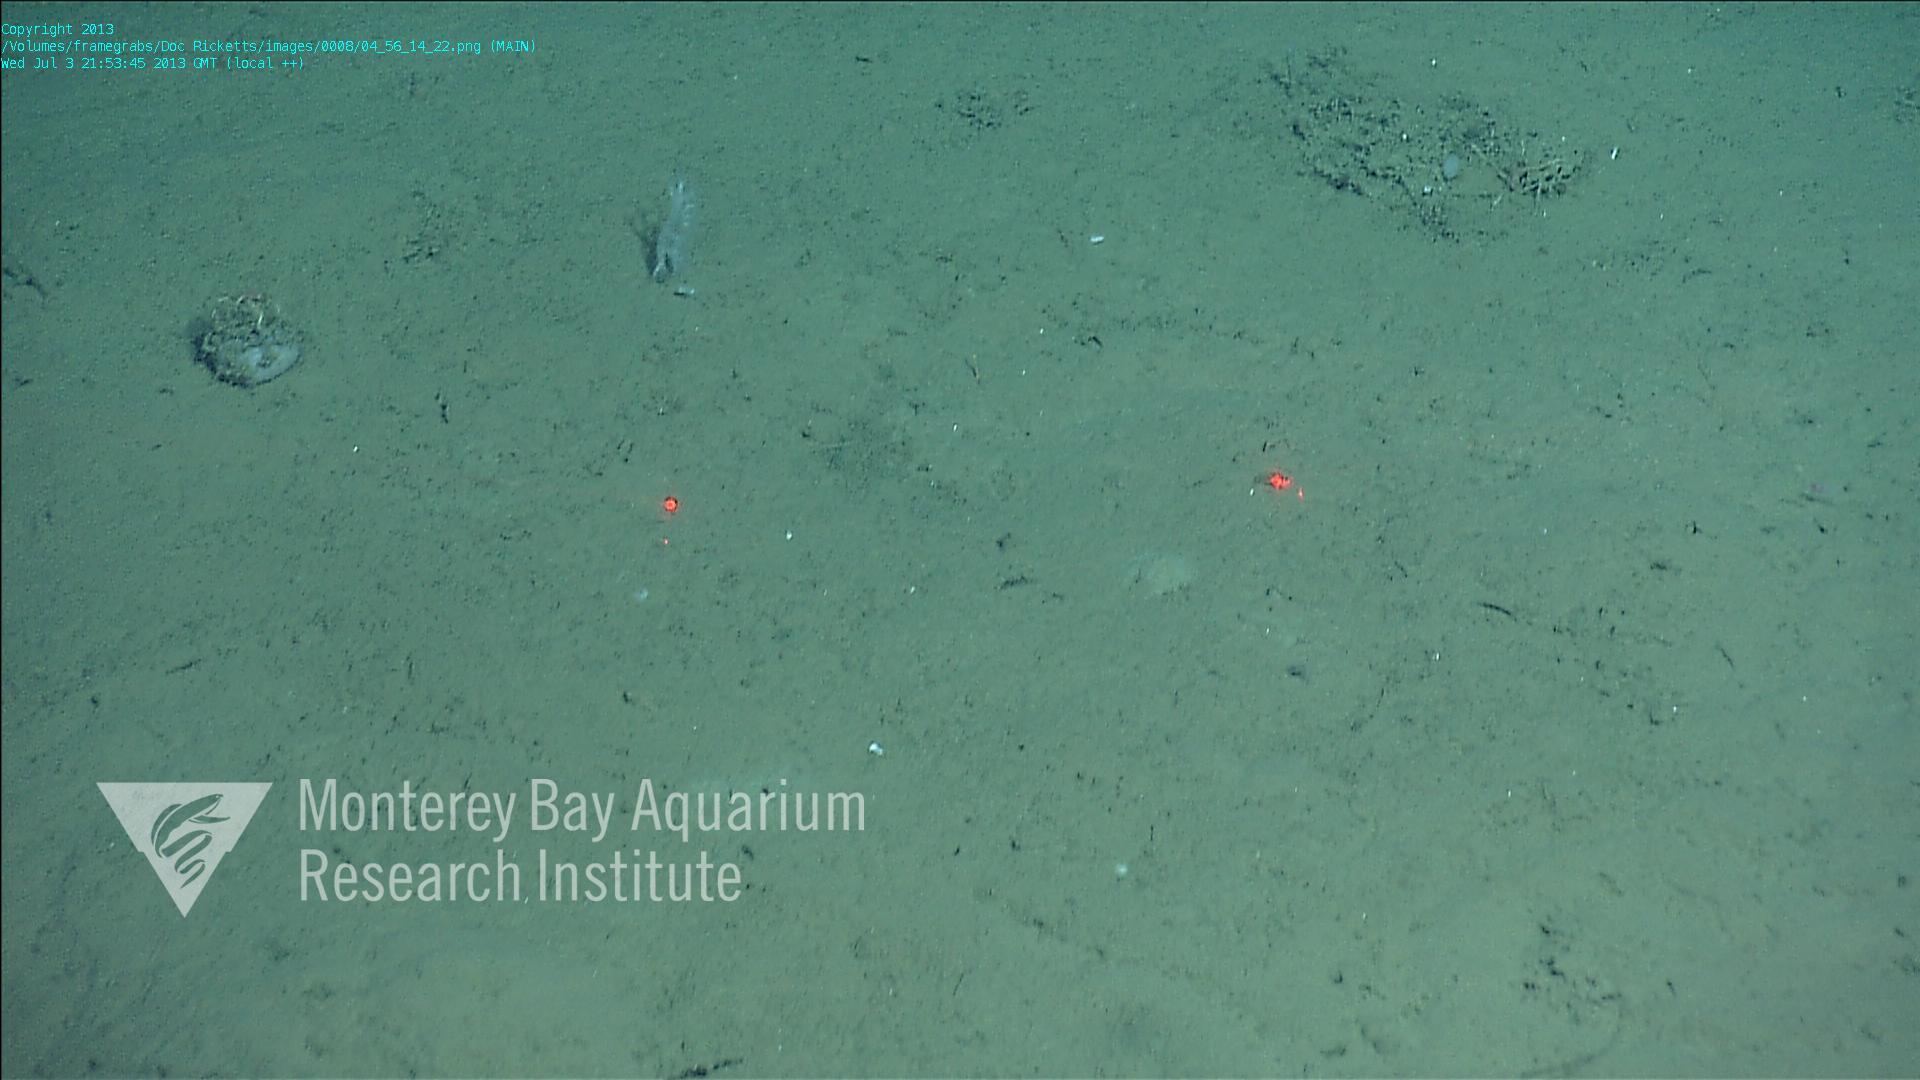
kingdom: Animalia
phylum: Porifera
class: Hexactinellida
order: Lyssacinosida
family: Euplectellidae
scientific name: Euplectellidae
